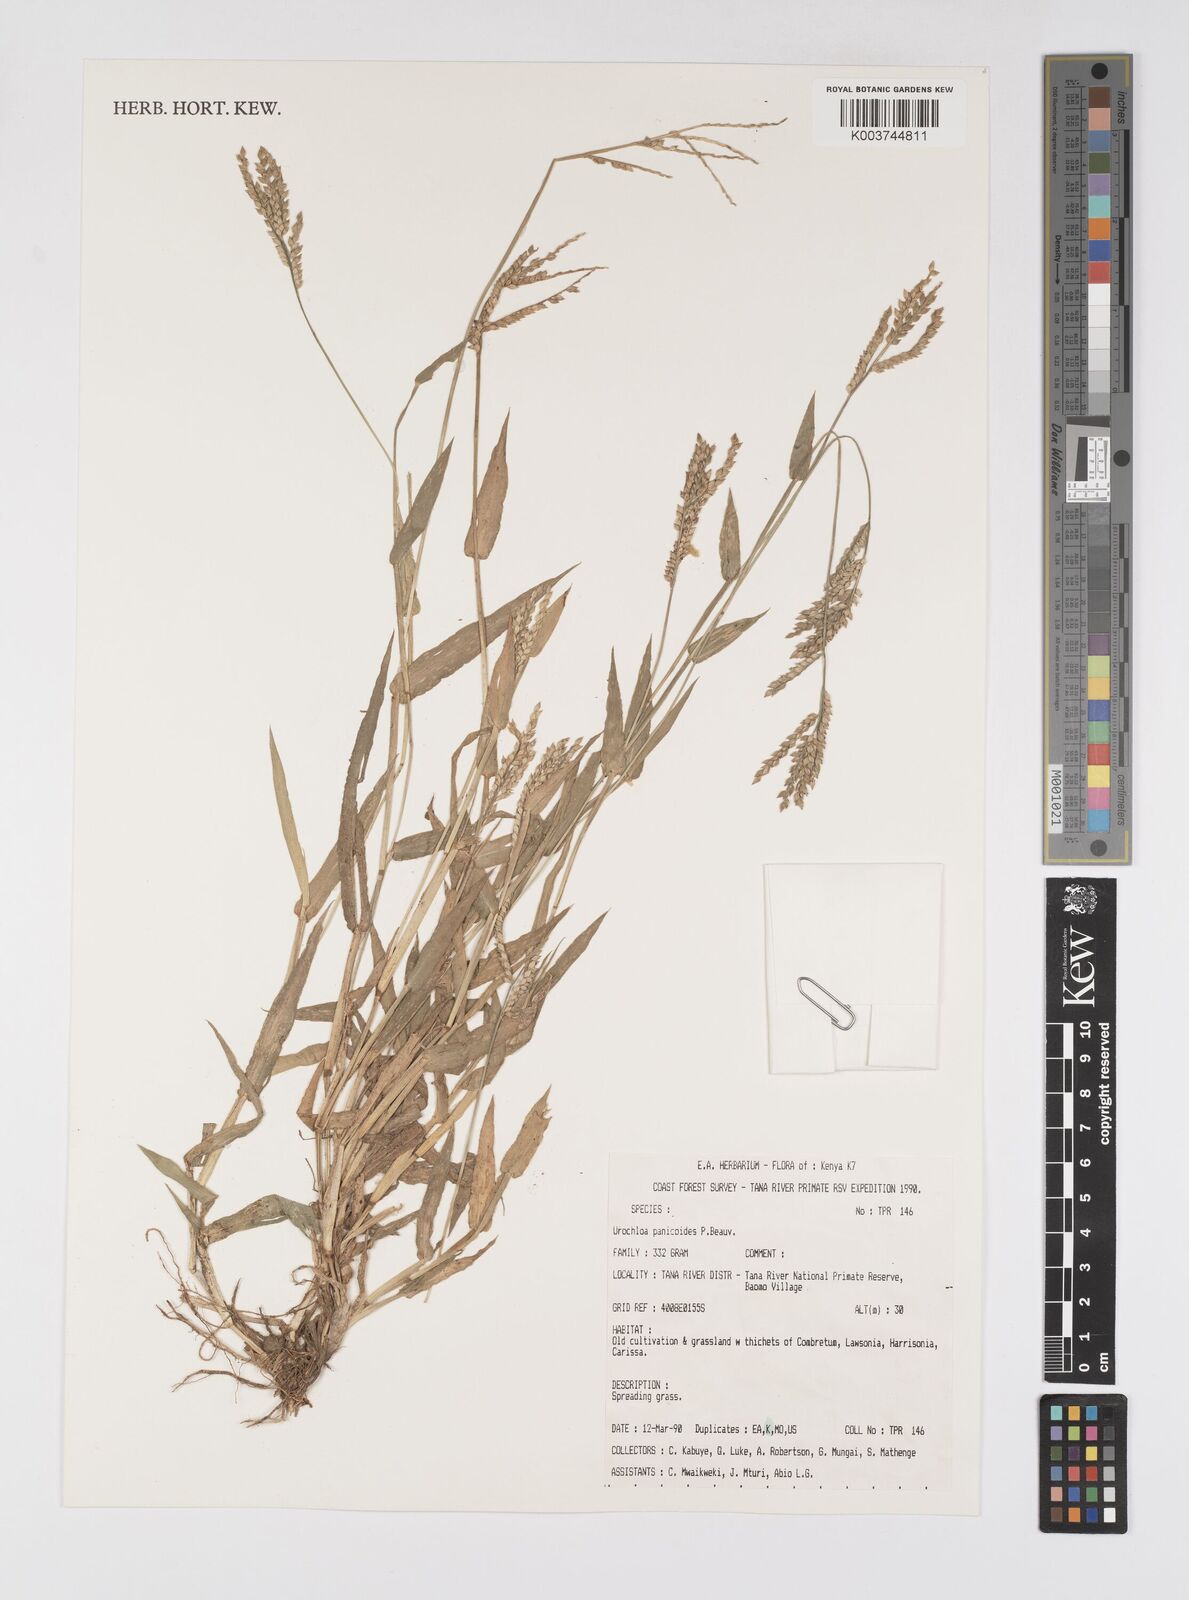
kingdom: Plantae
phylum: Tracheophyta
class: Liliopsida
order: Poales
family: Poaceae
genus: Urochloa
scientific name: Urochloa panicoides
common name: Sharp-flowered signal-grass
